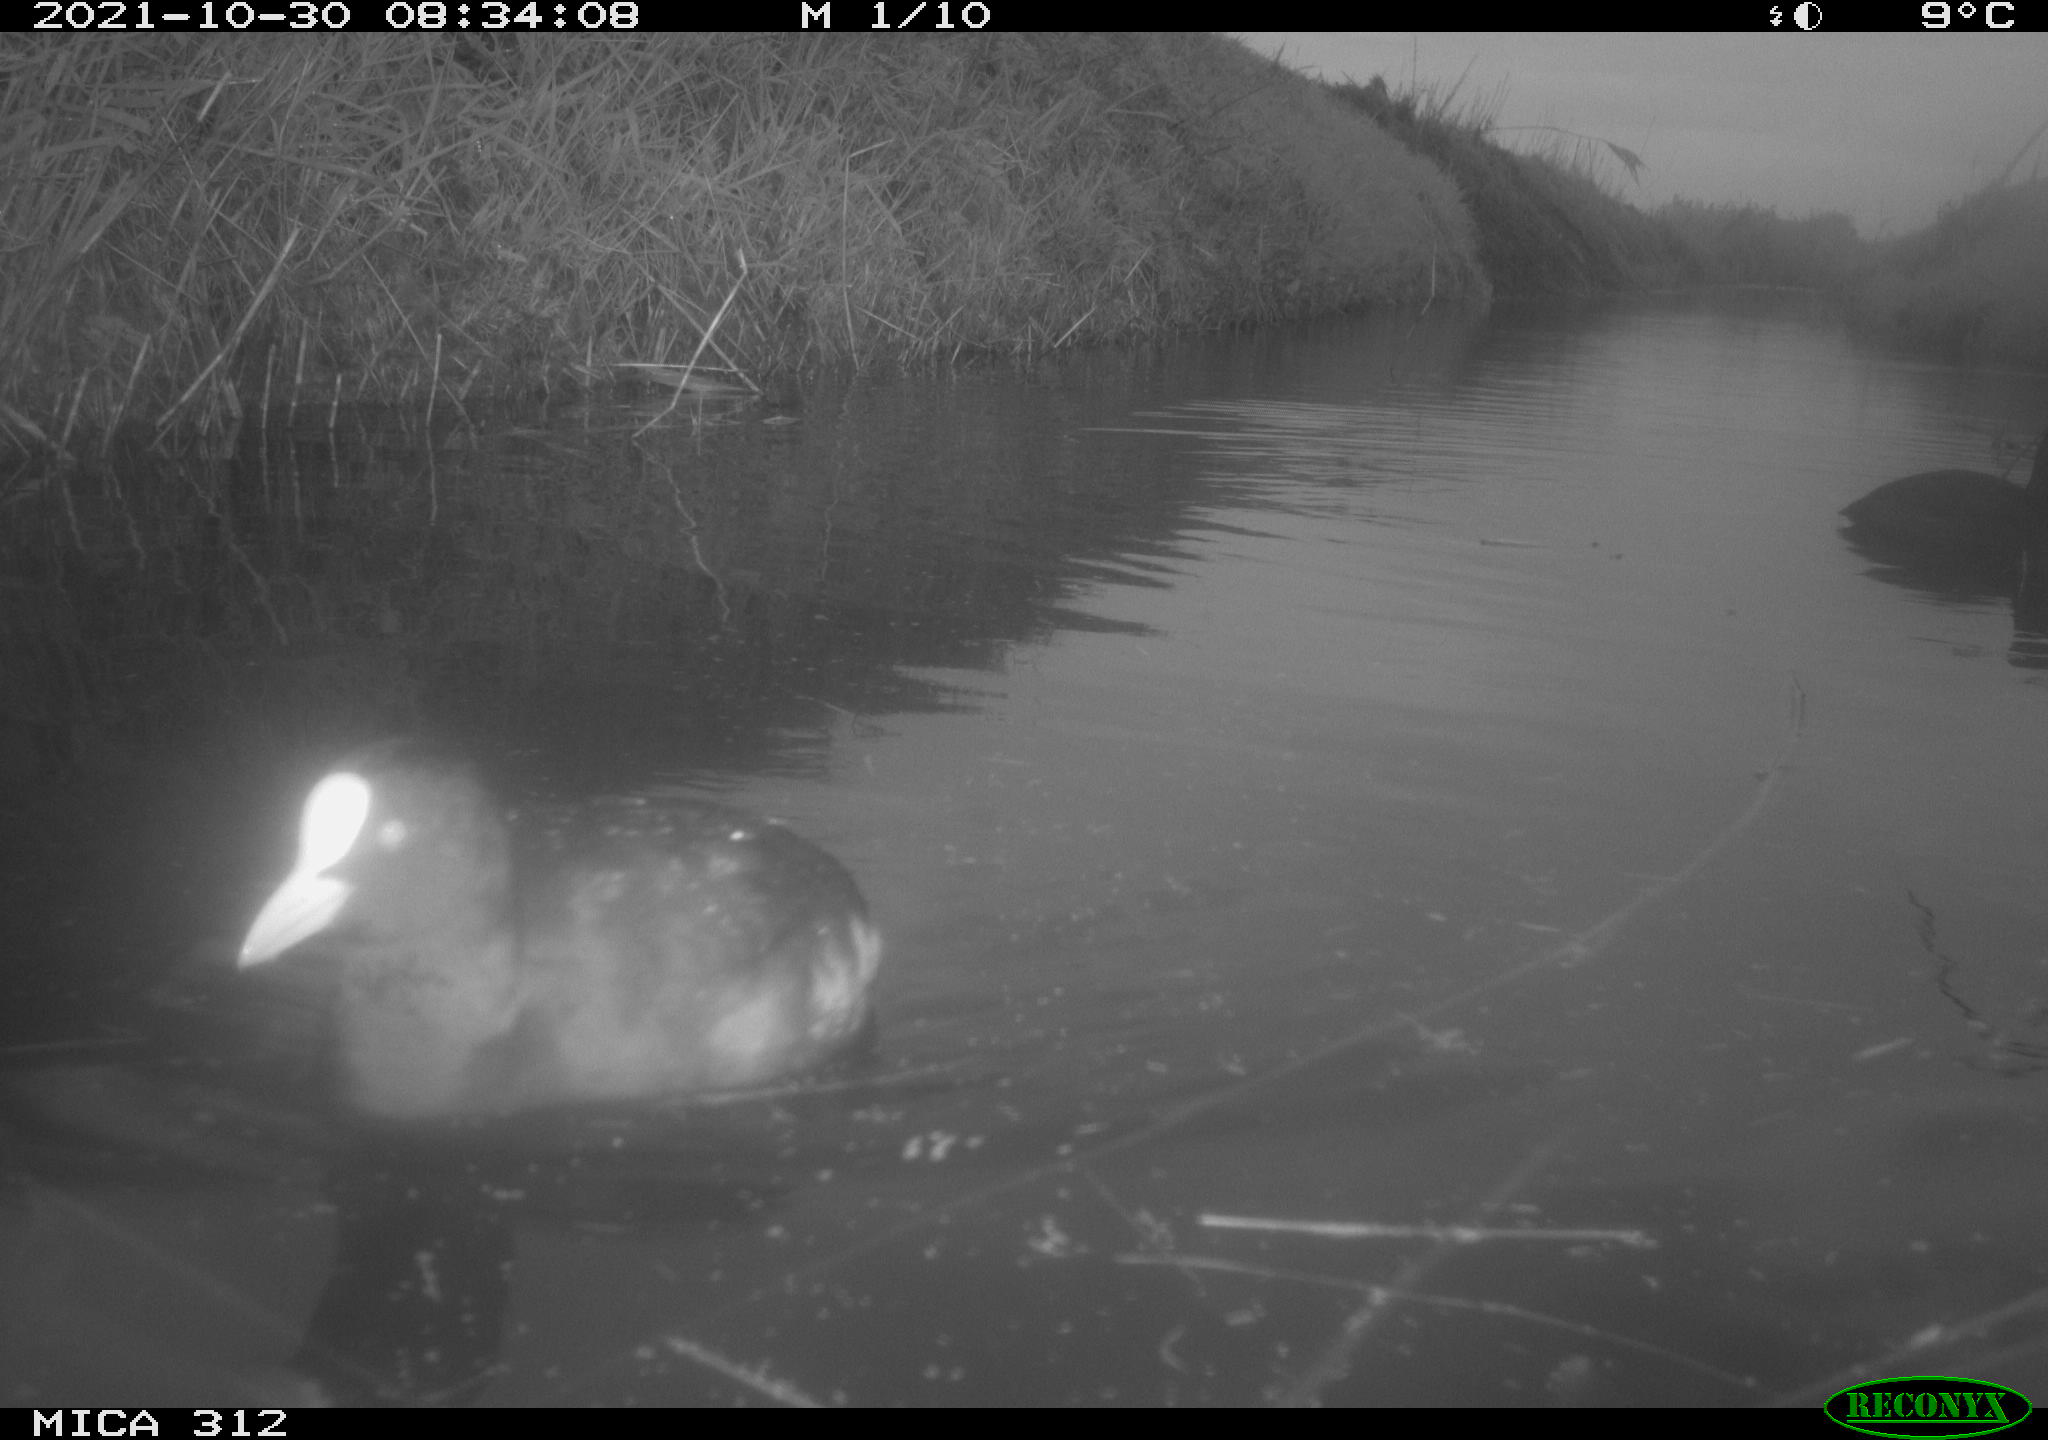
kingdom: Animalia
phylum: Chordata
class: Aves
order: Anseriformes
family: Anatidae
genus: Anas
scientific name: Anas
